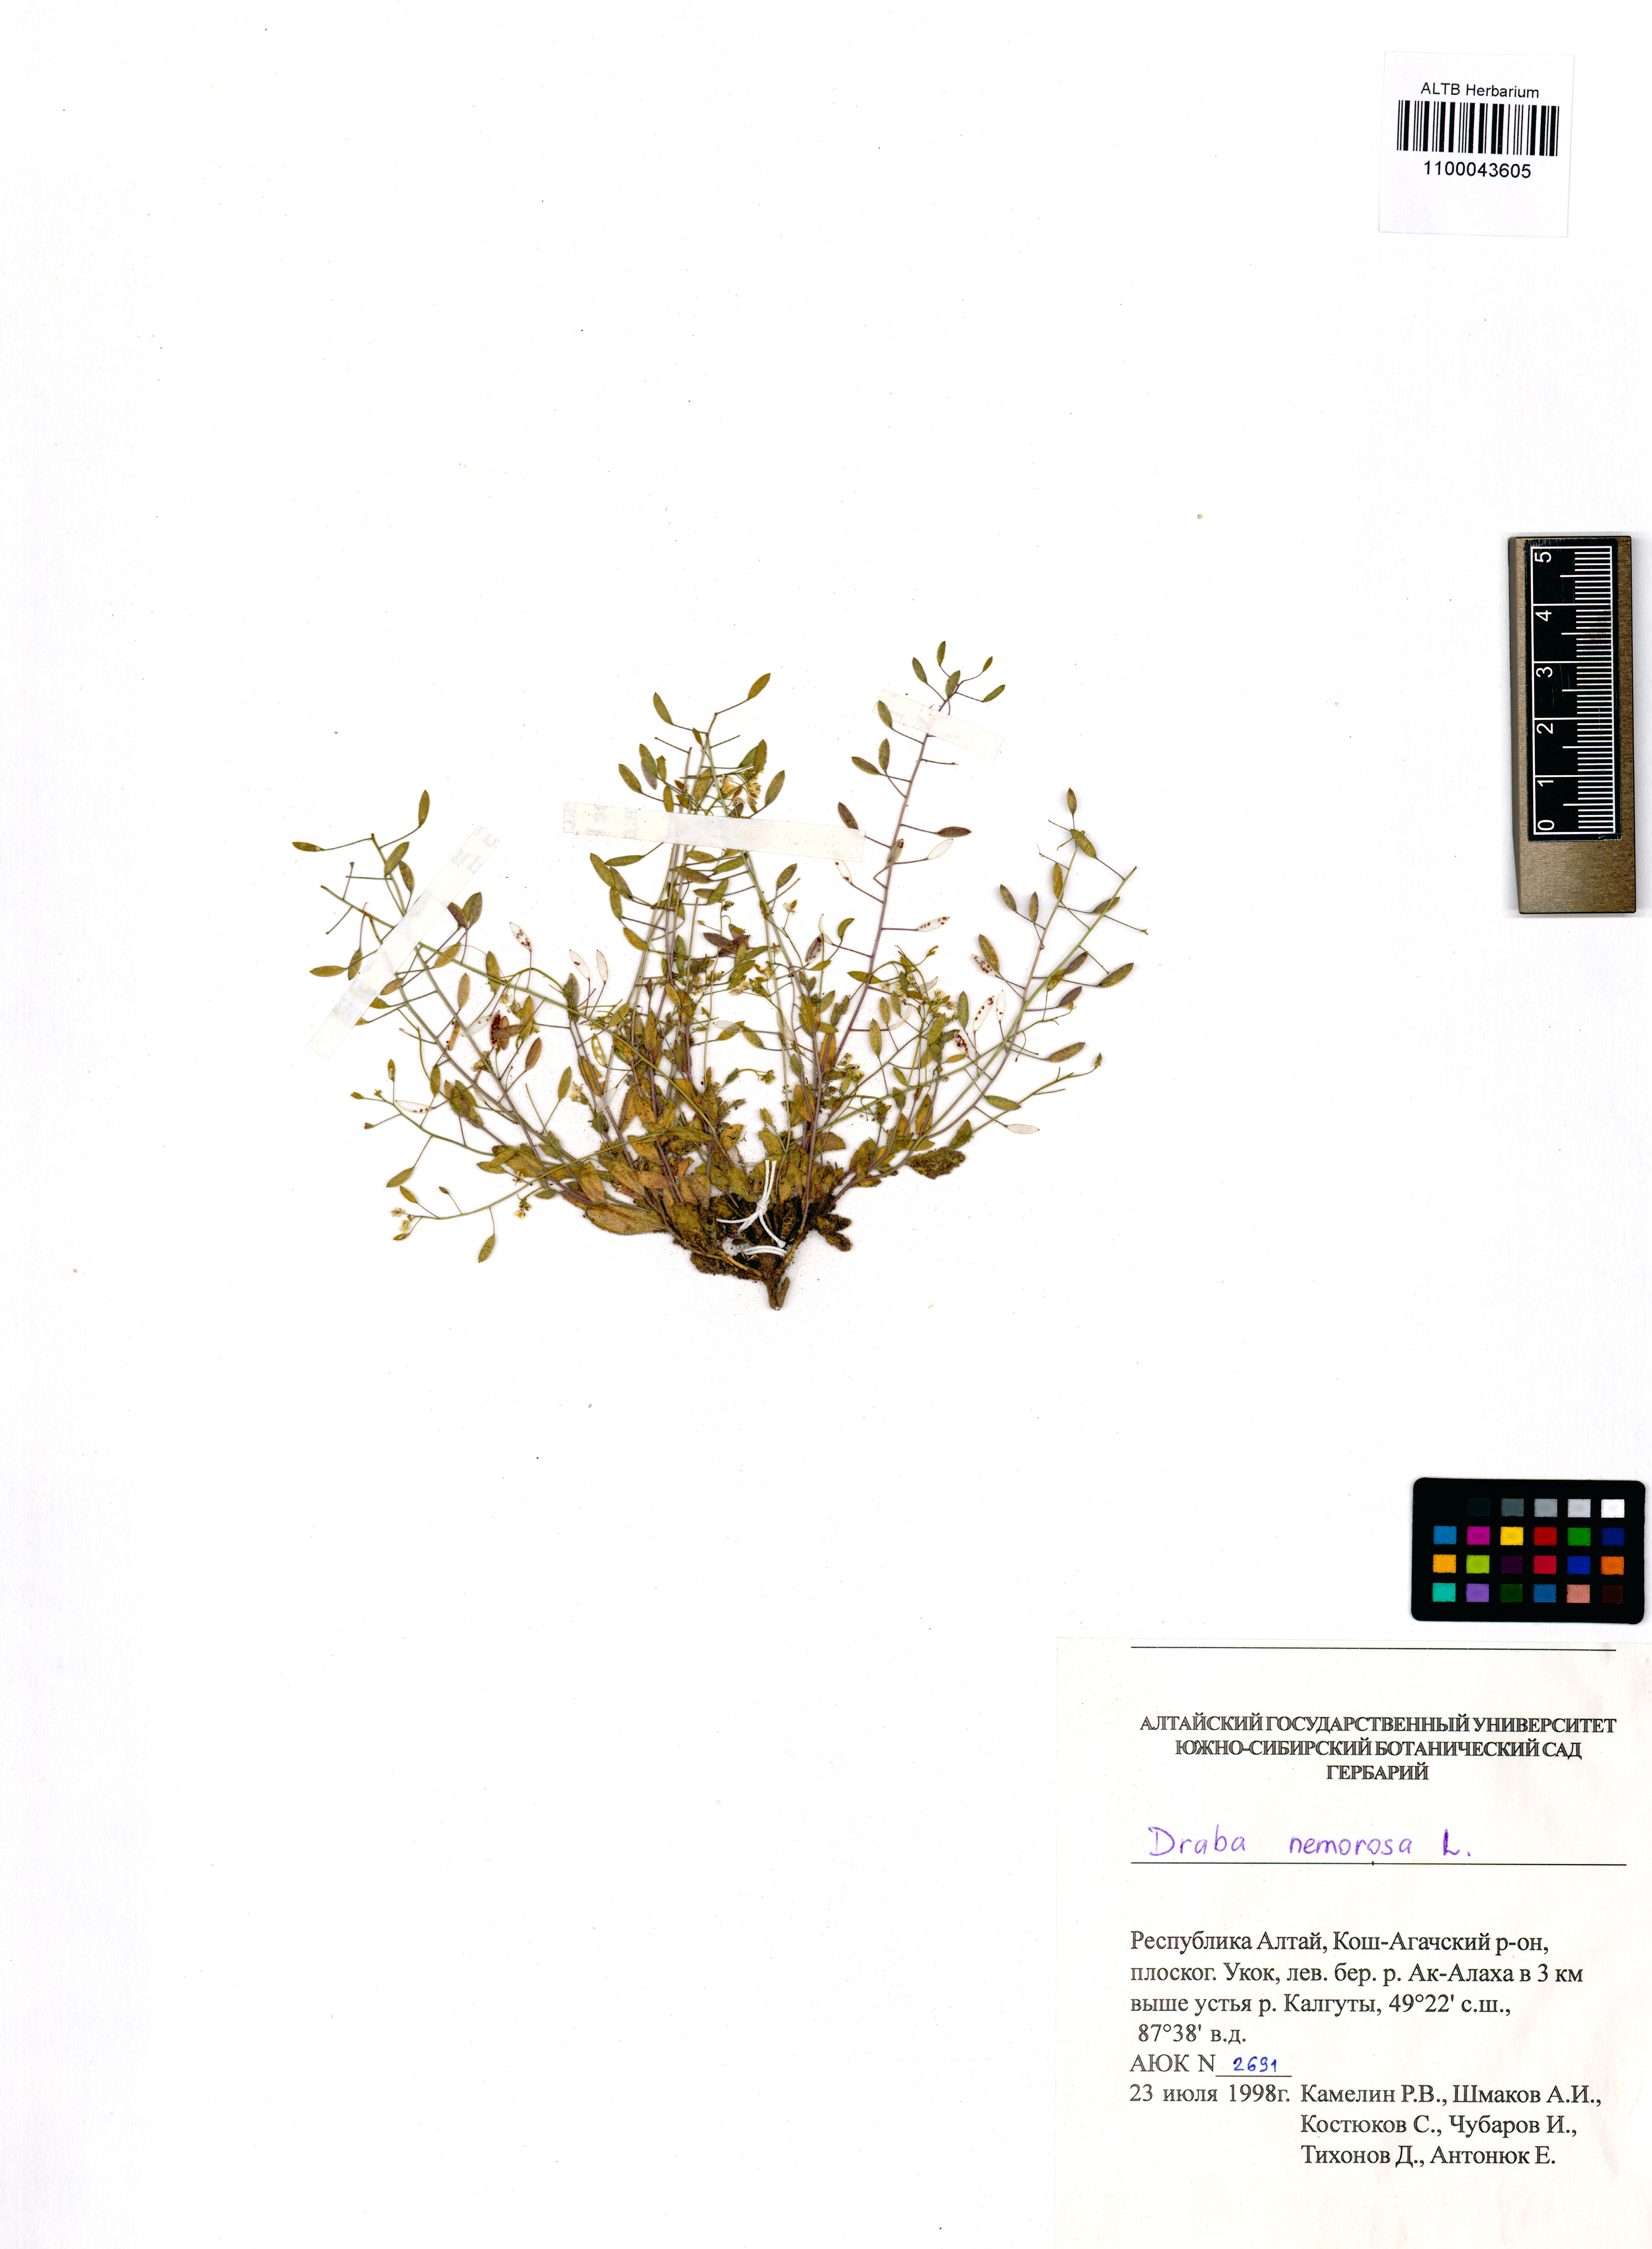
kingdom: Plantae
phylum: Tracheophyta
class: Magnoliopsida
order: Brassicales
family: Brassicaceae
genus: Draba
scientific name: Draba nemorosa
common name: Wood whitlow-grass
